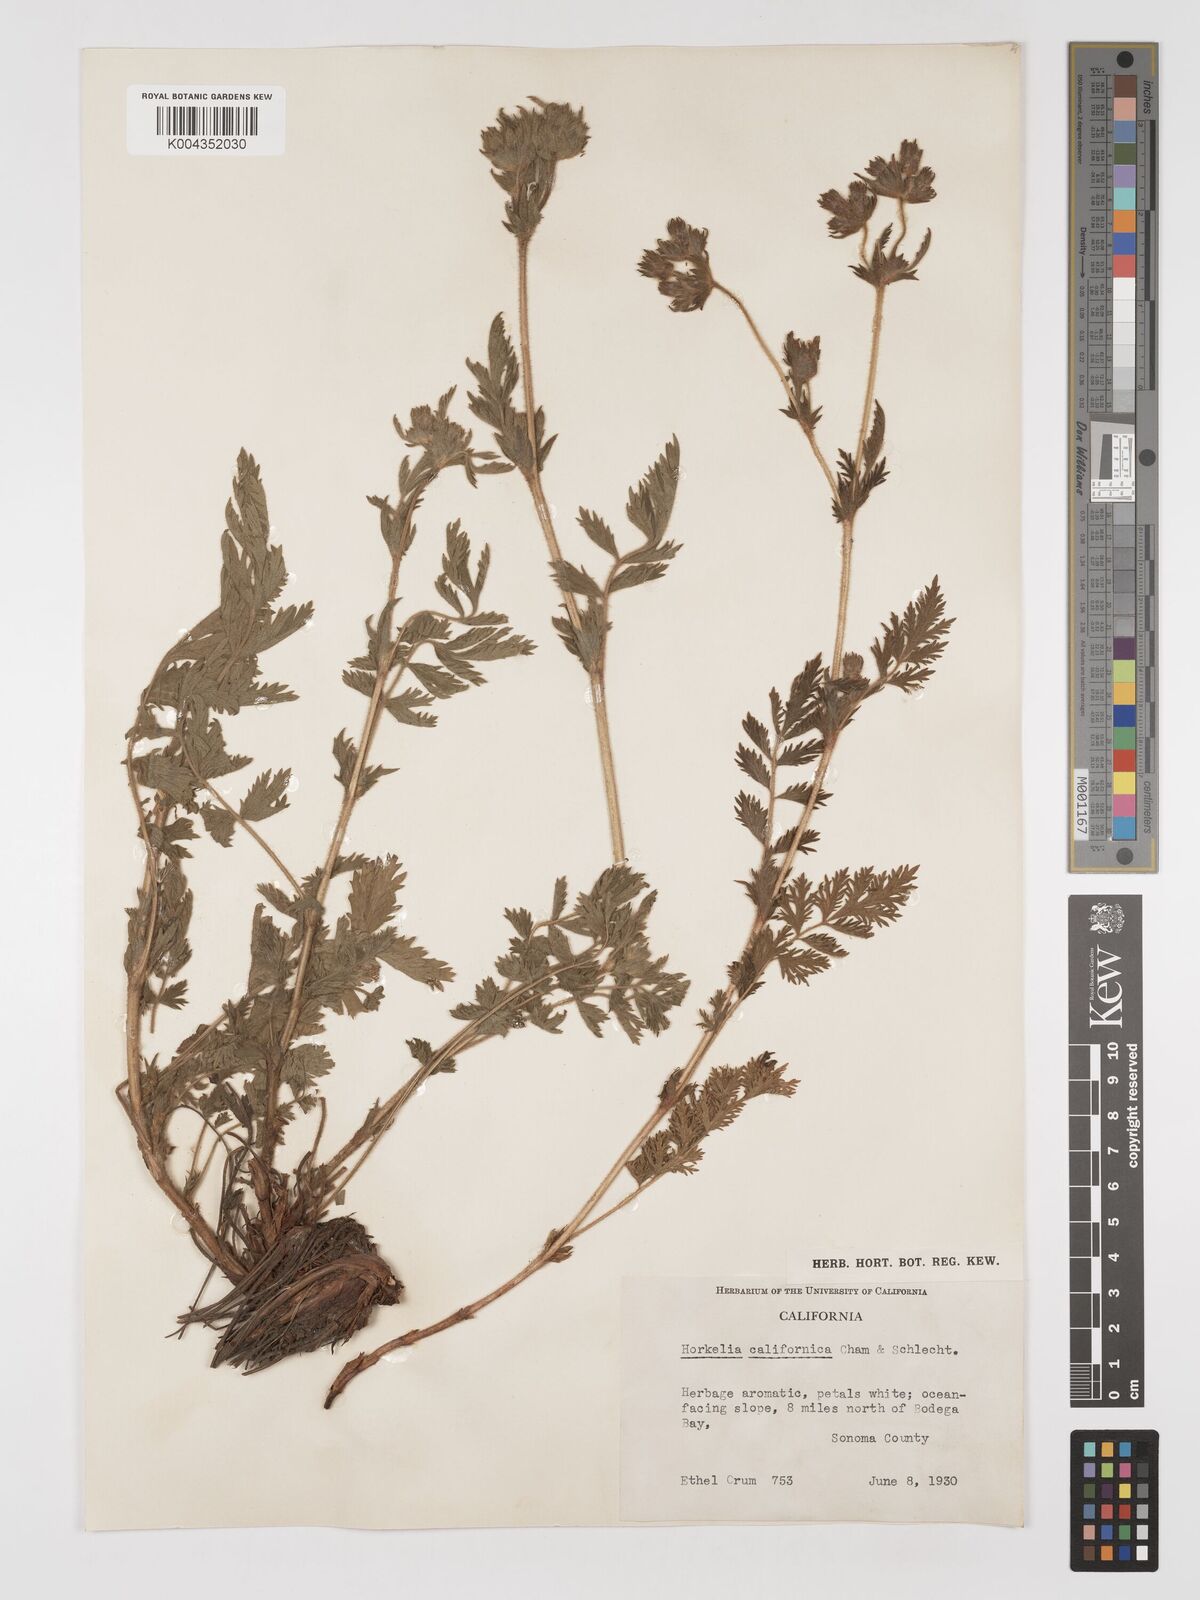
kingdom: Plantae
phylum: Tracheophyta
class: Magnoliopsida
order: Rosales
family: Rosaceae
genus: Potentilla
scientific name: Potentilla californica
